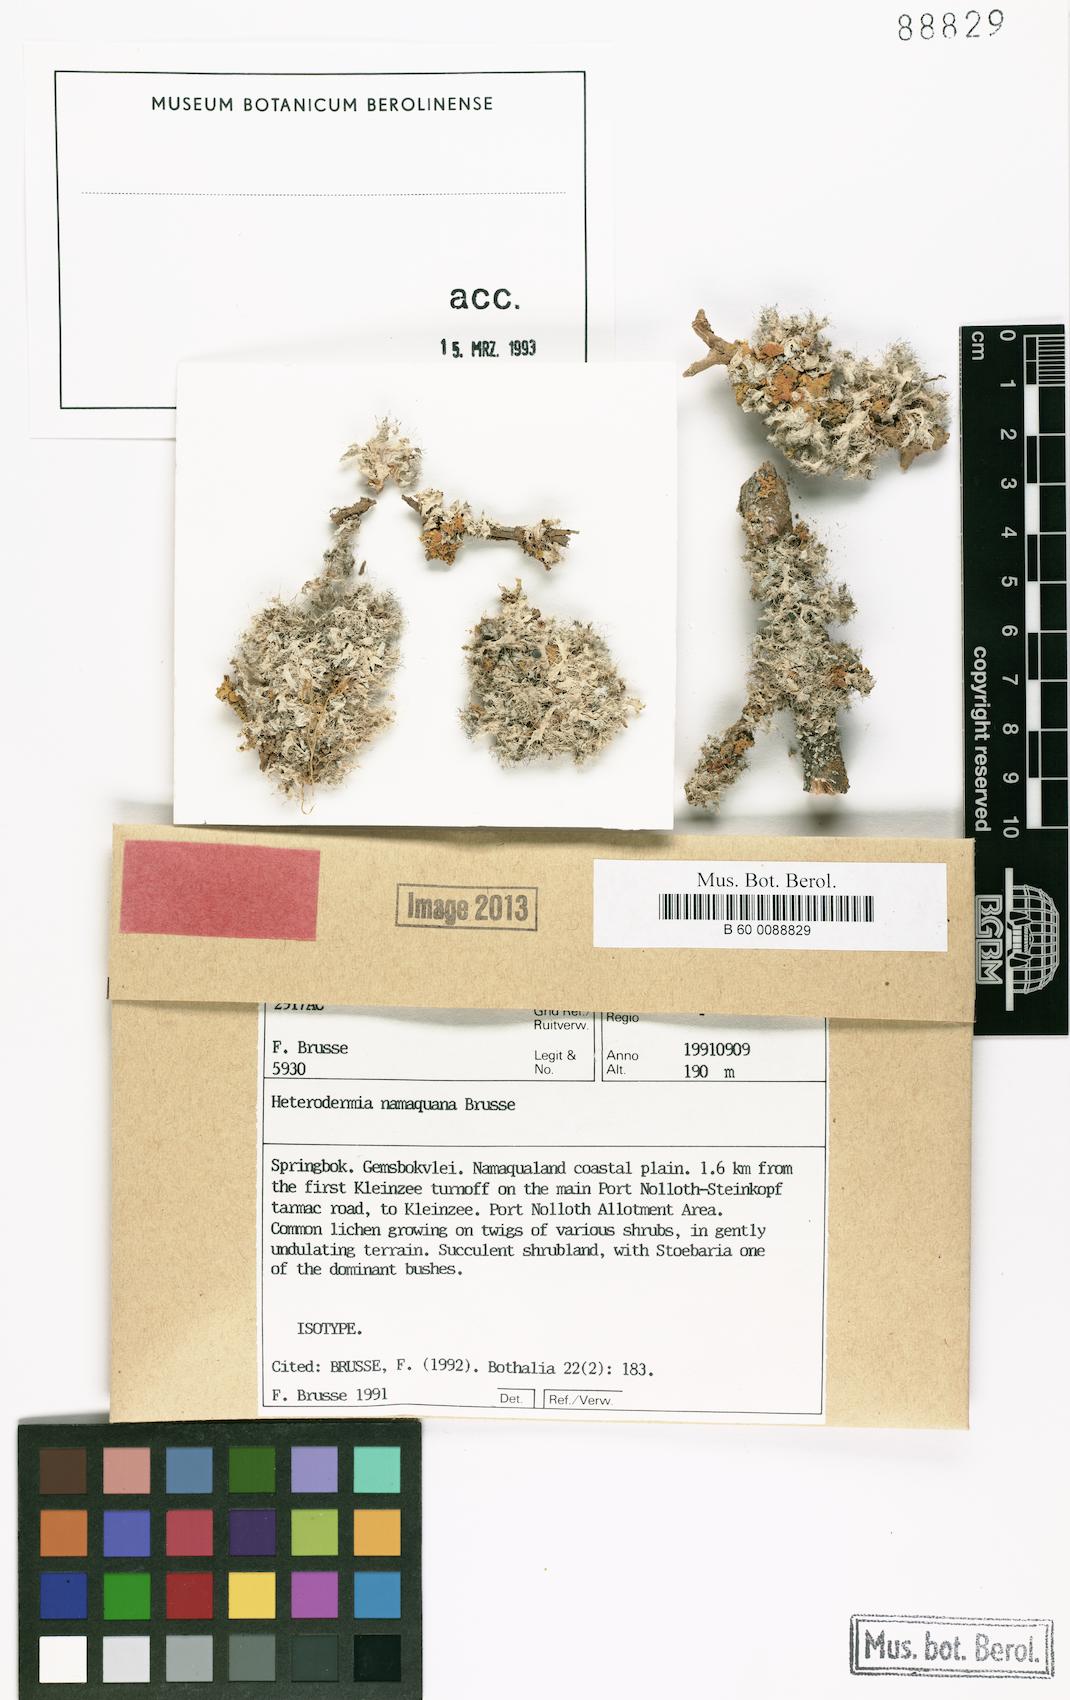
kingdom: Fungi
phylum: Ascomycota
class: Lecanoromycetes
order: Caliciales
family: Physciaceae
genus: Heterodermia
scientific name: Heterodermia namaquana
